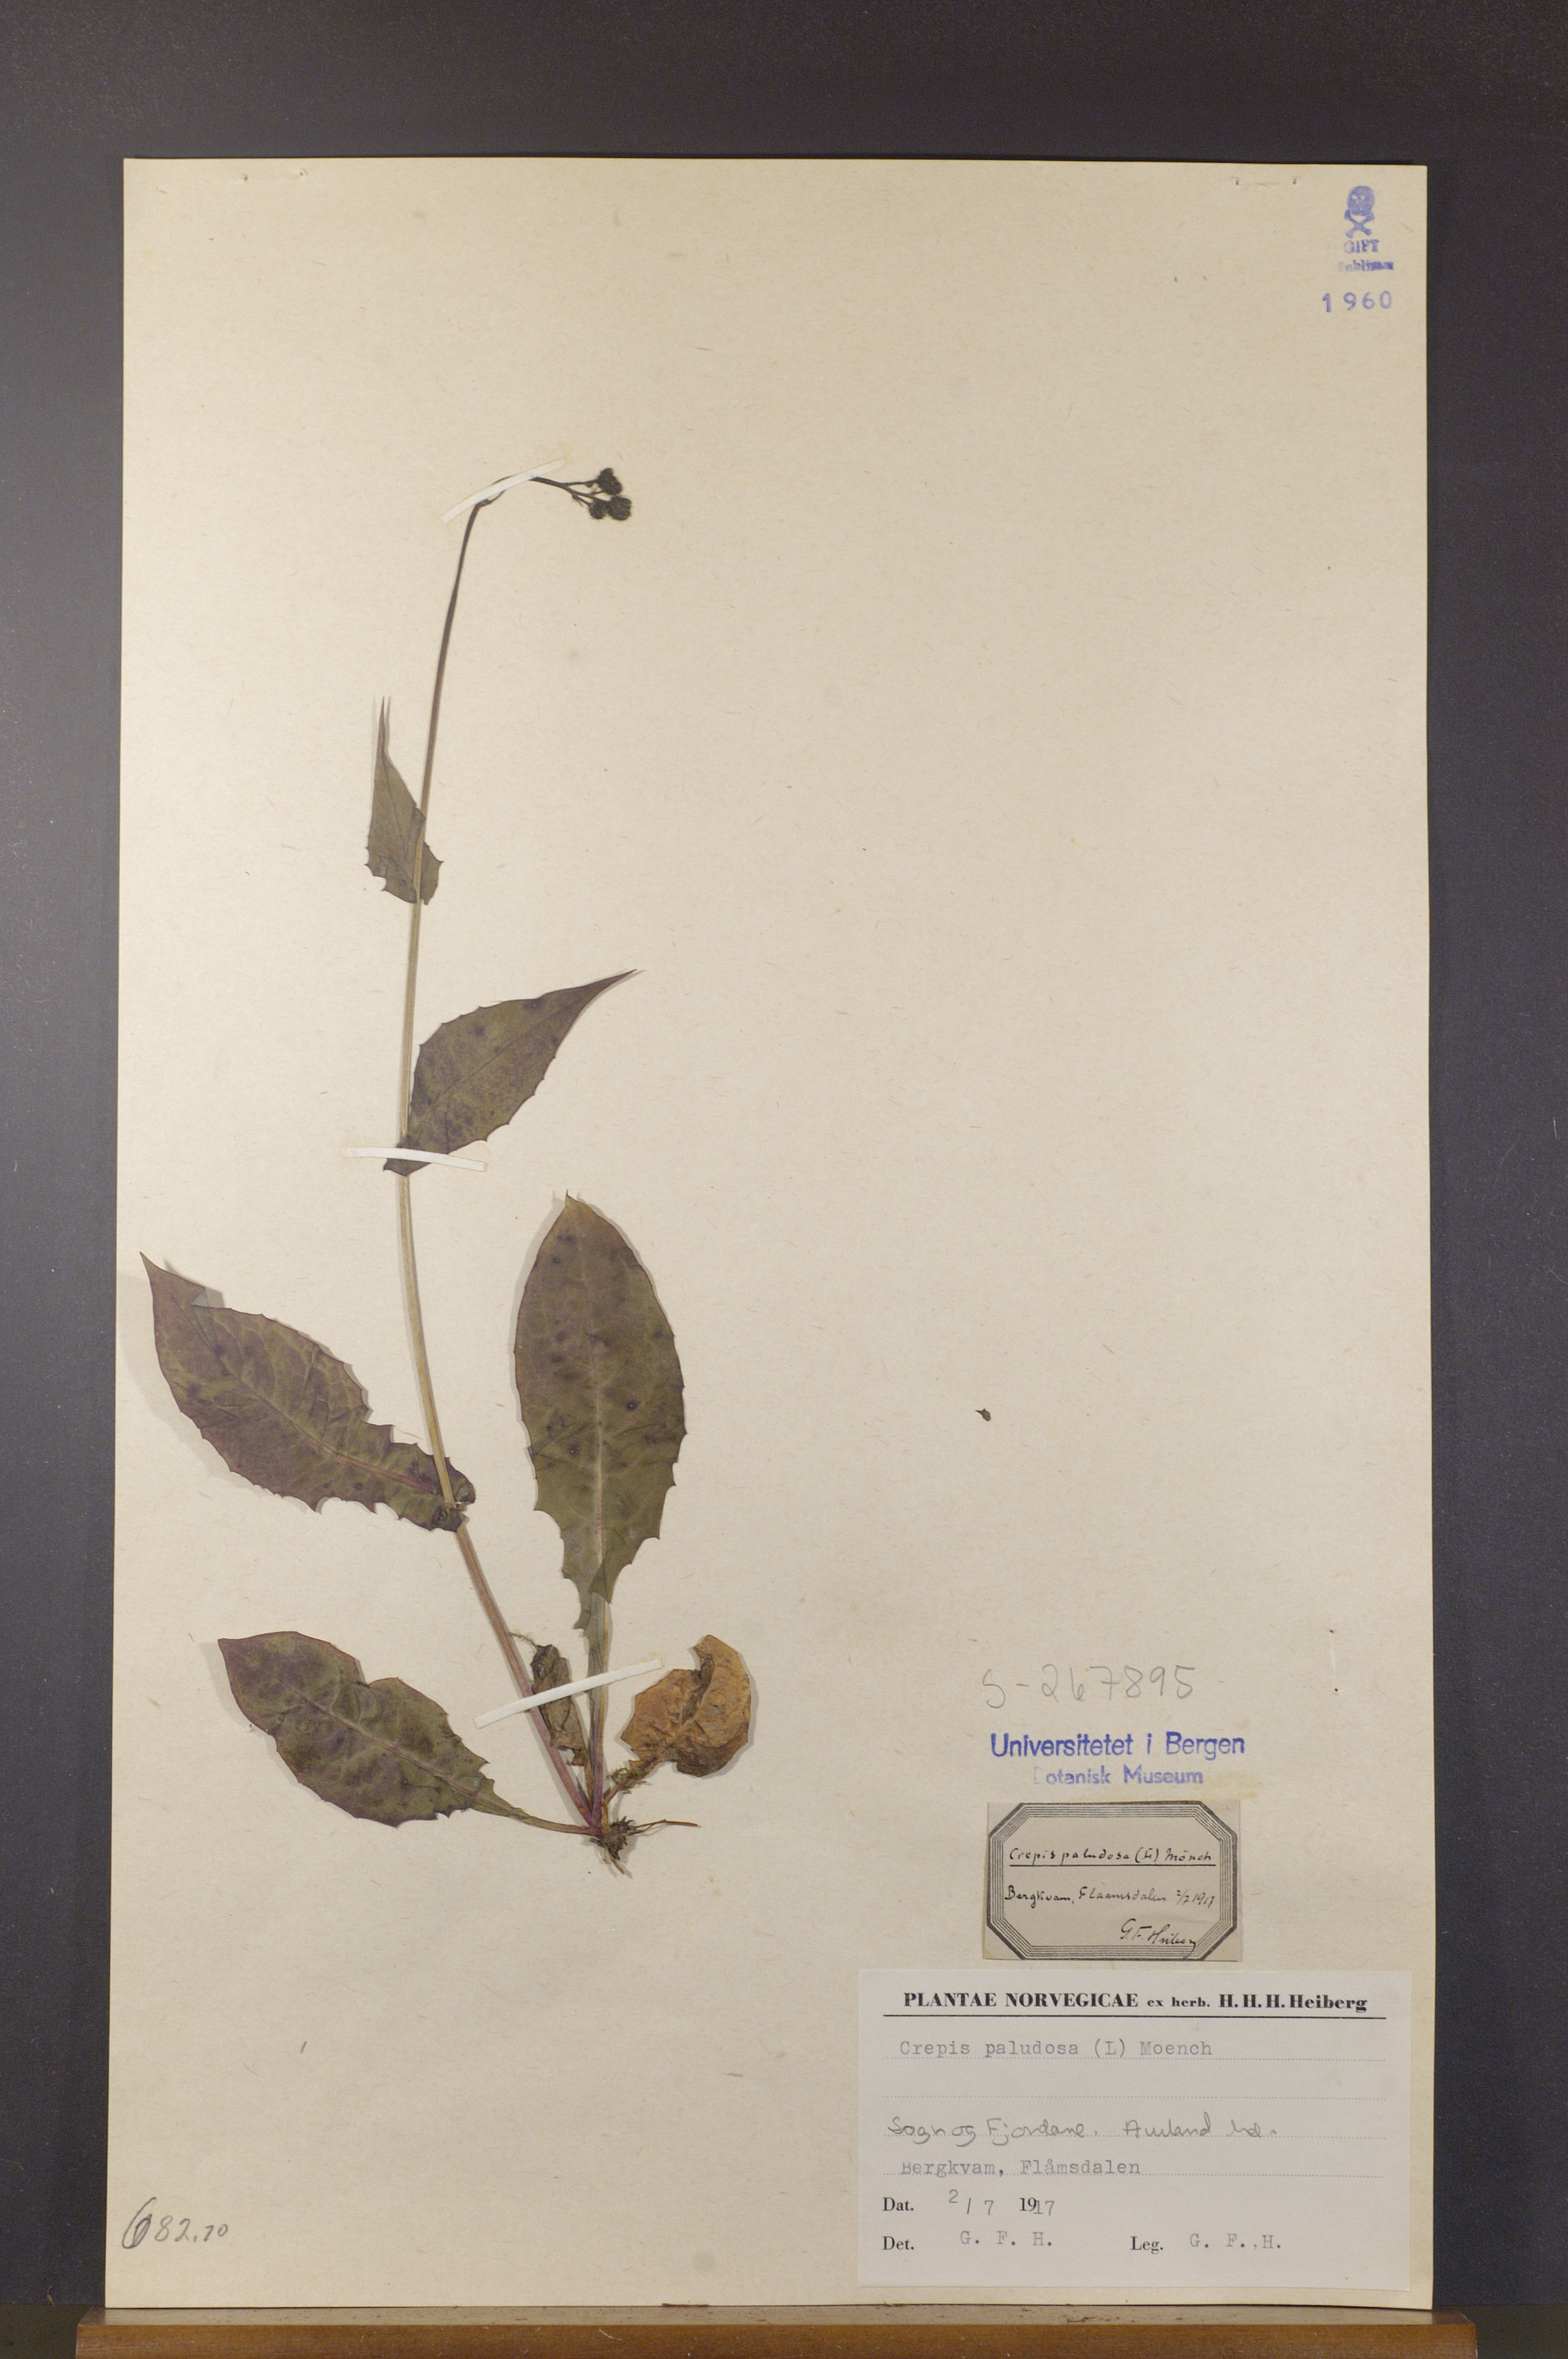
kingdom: Plantae
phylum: Tracheophyta
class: Magnoliopsida
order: Asterales
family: Asteraceae
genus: Crepis
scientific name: Crepis paludosa
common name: Marsh hawk's-beard
